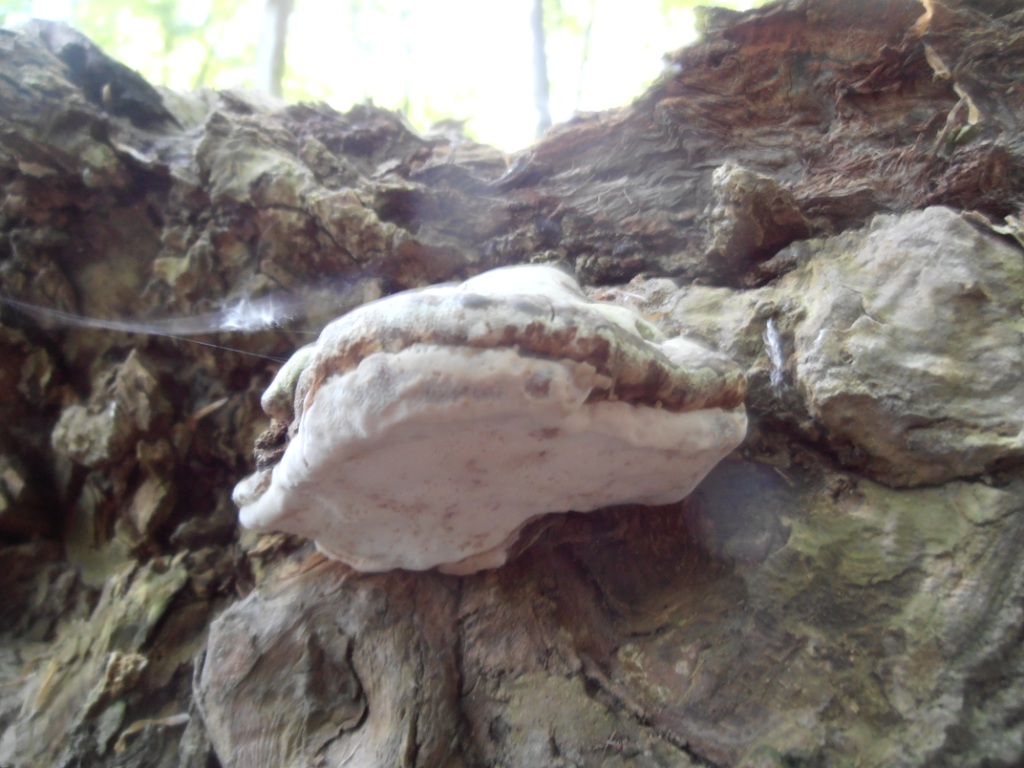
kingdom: Fungi
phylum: Basidiomycota
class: Agaricomycetes
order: Polyporales
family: Fomitopsidaceae
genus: Fomitopsis
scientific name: Fomitopsis pinicola
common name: randbæltet hovporesvamp
